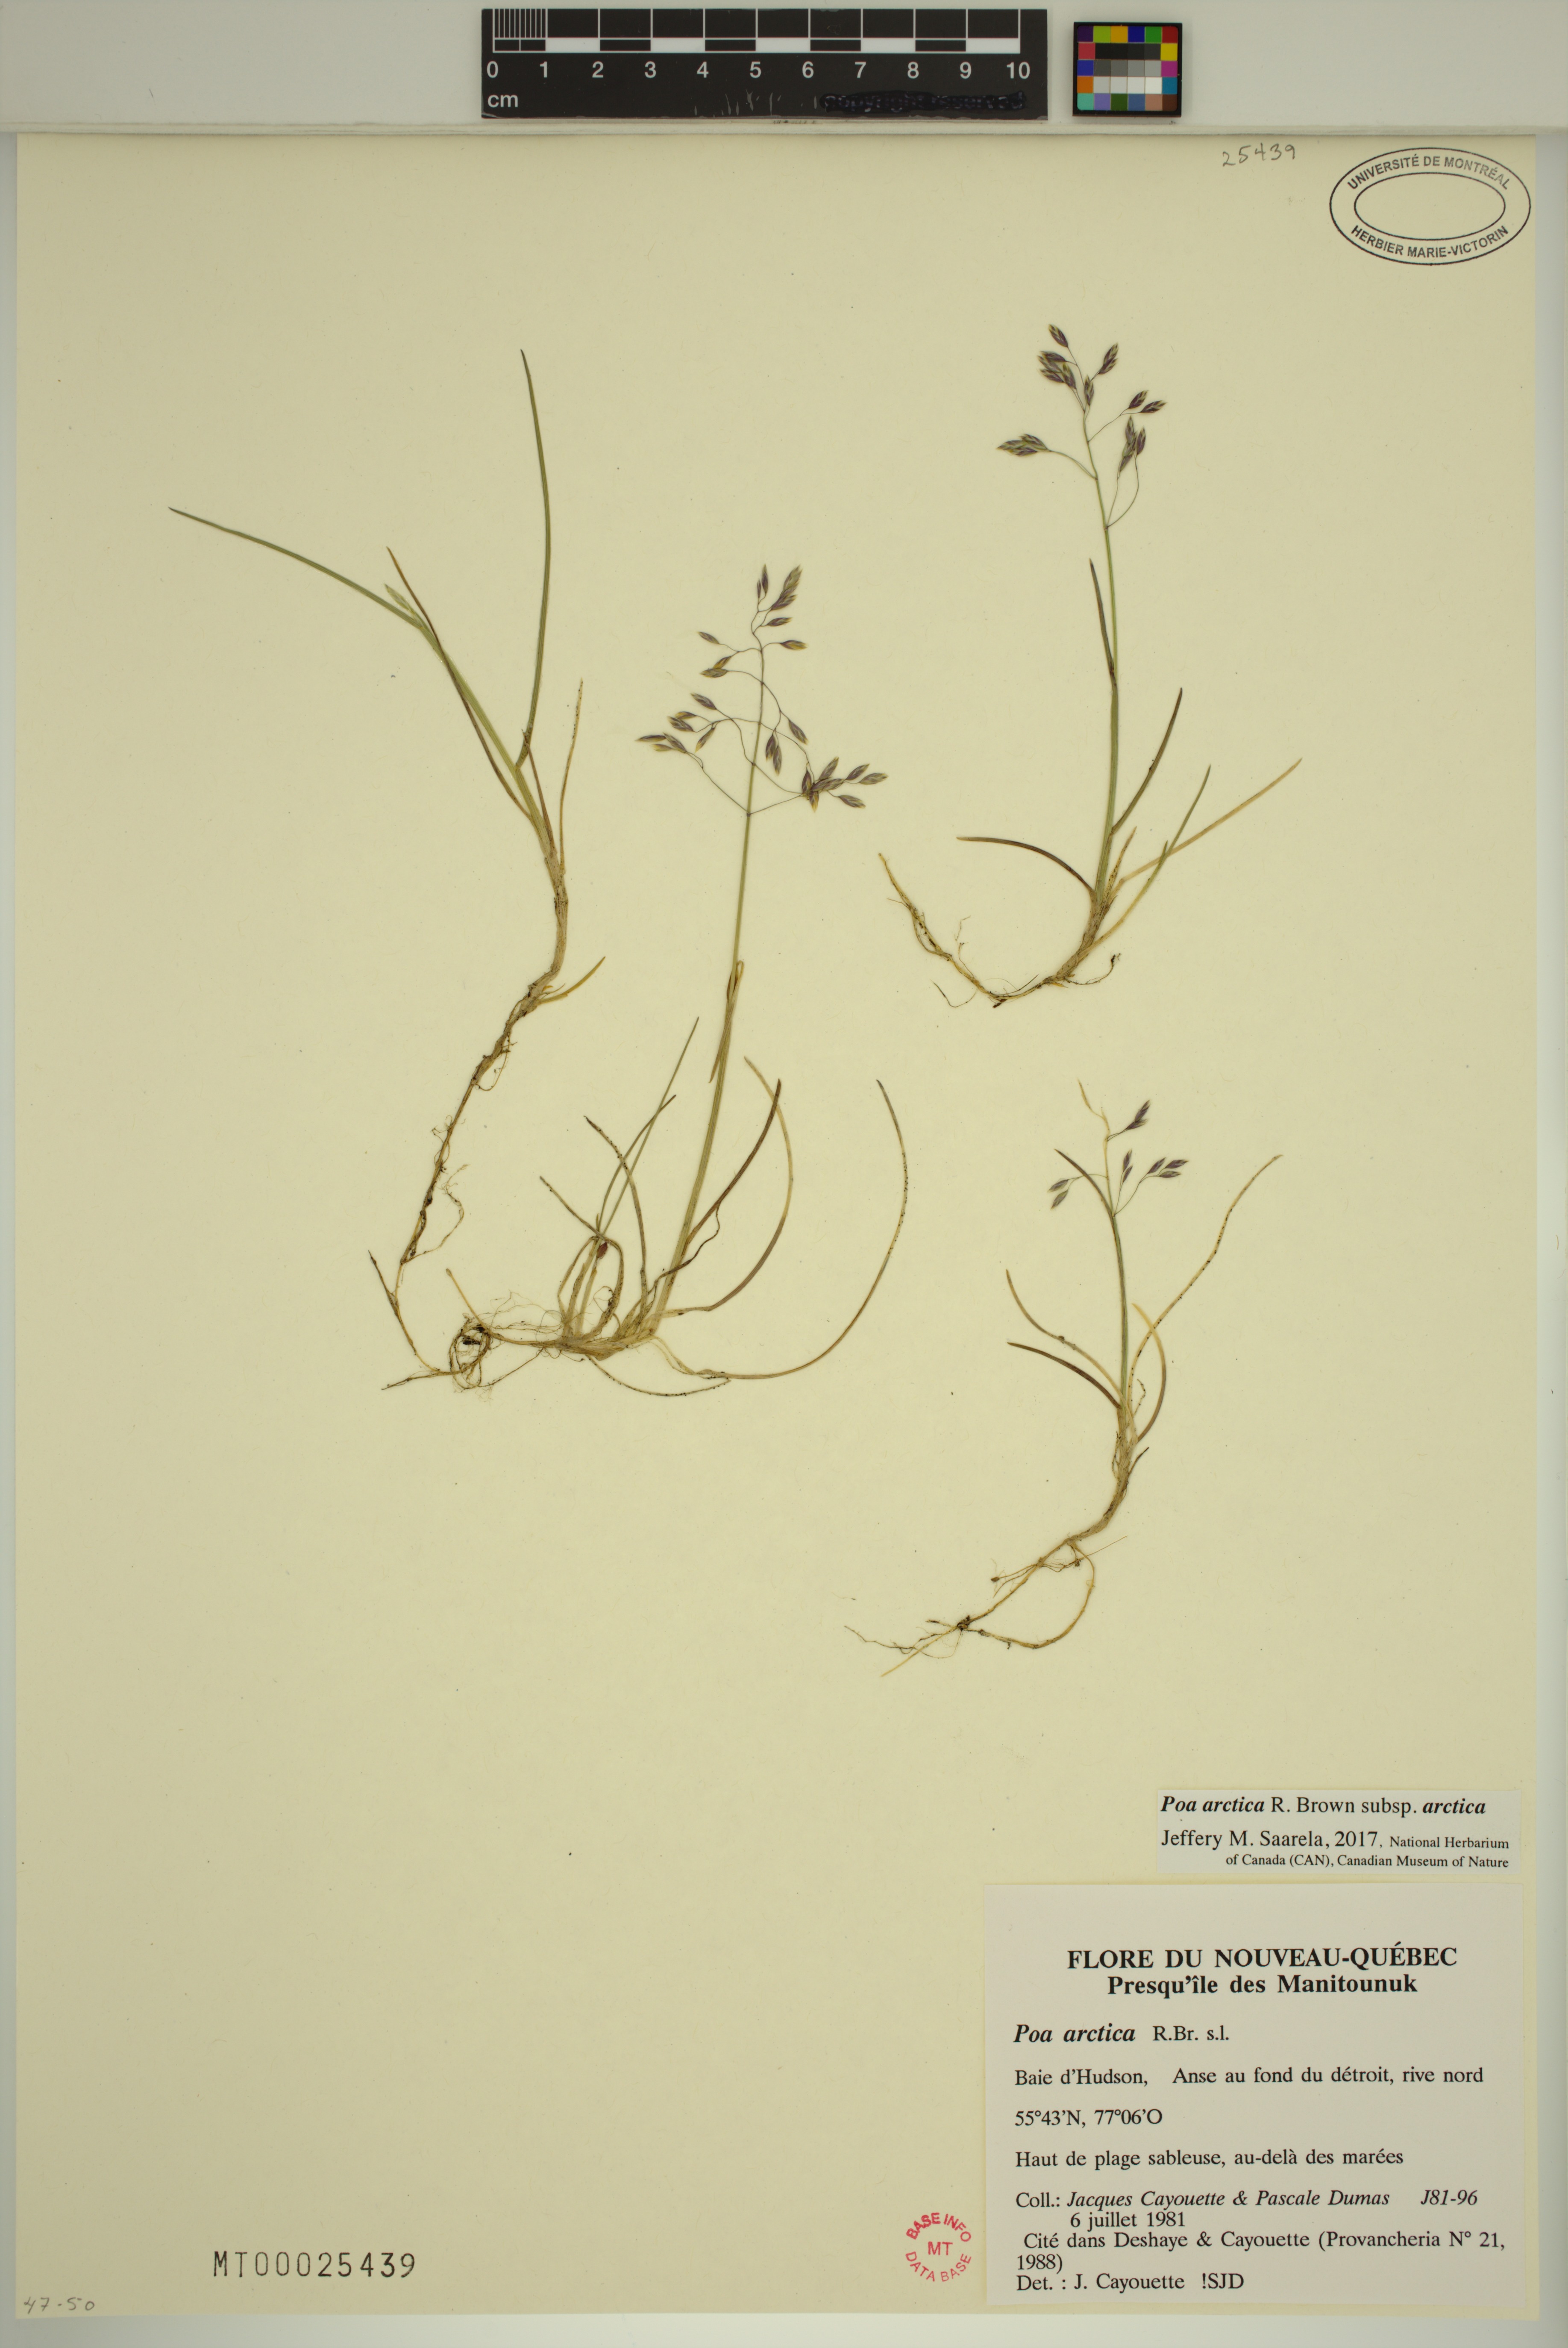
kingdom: Plantae
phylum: Tracheophyta
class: Liliopsida
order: Poales
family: Poaceae
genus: Poa
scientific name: Poa arctica
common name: Arctic bluegrass
